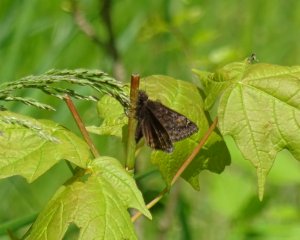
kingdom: Animalia
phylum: Arthropoda
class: Insecta
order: Lepidoptera
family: Hesperiidae
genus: Gesta
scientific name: Gesta
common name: Wild Indigo Duskywing
